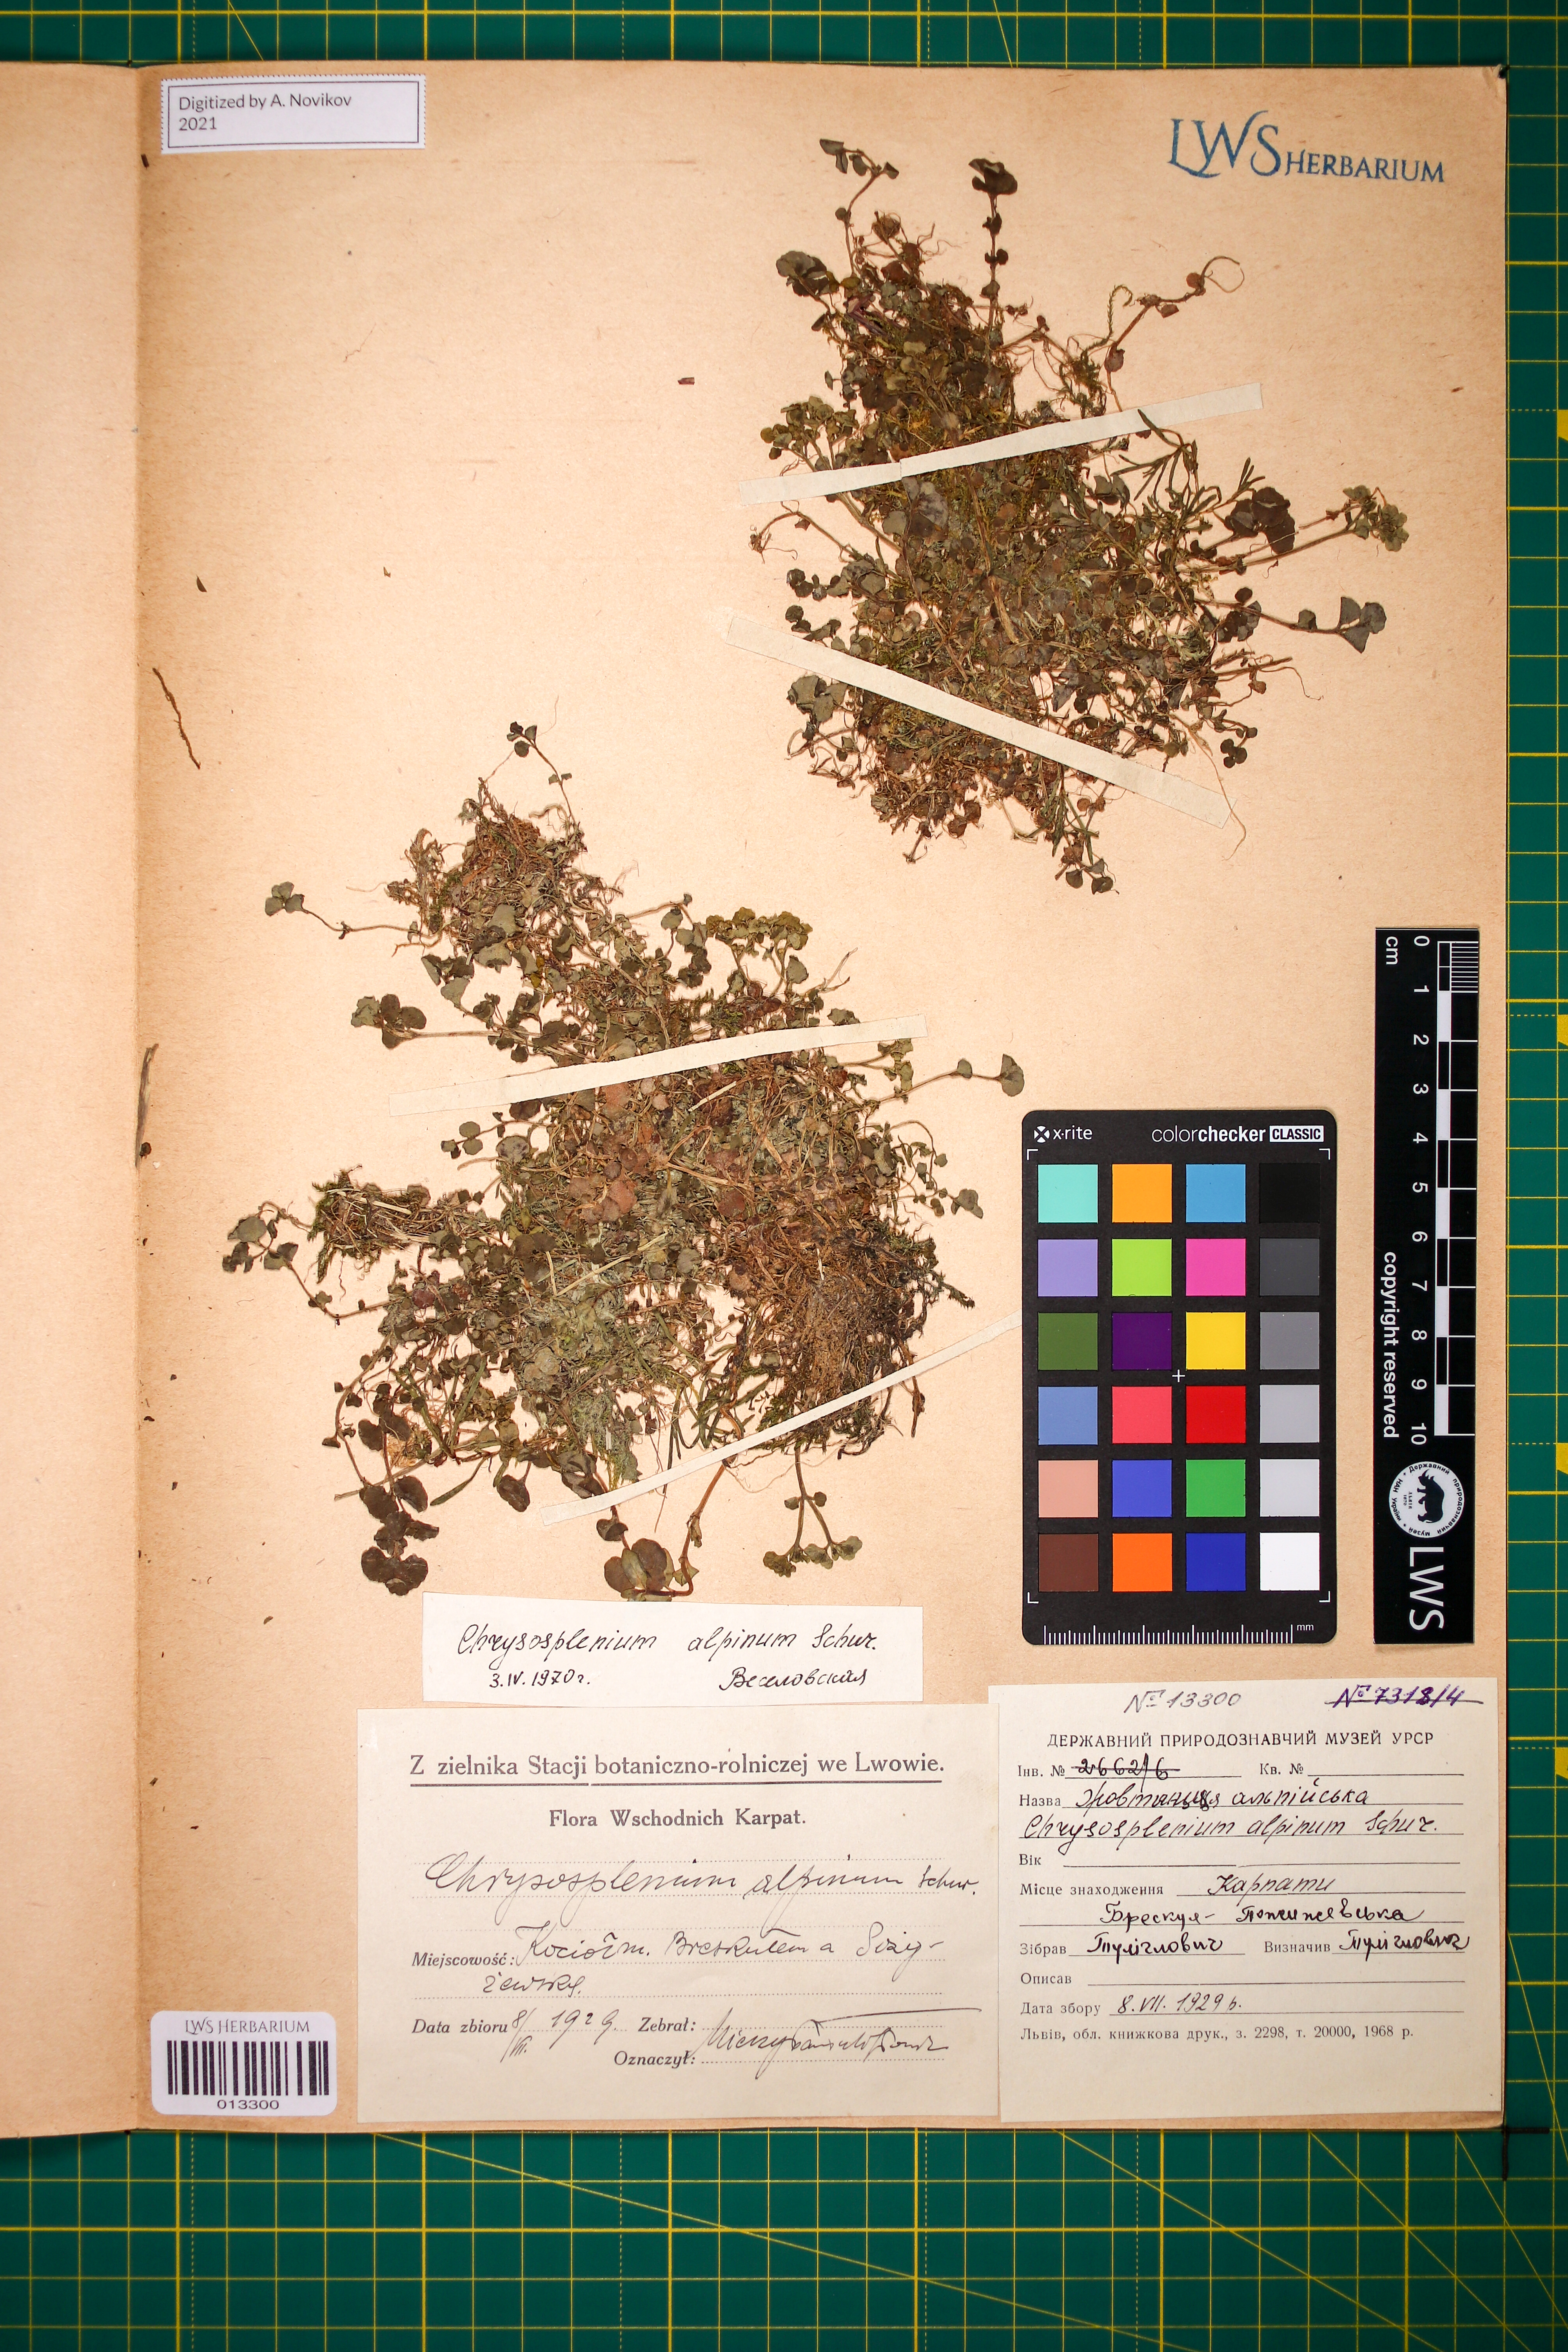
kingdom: Plantae
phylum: Tracheophyta
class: Magnoliopsida
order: Saxifragales
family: Saxifragaceae
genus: Chrysosplenium
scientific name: Chrysosplenium alpinum
